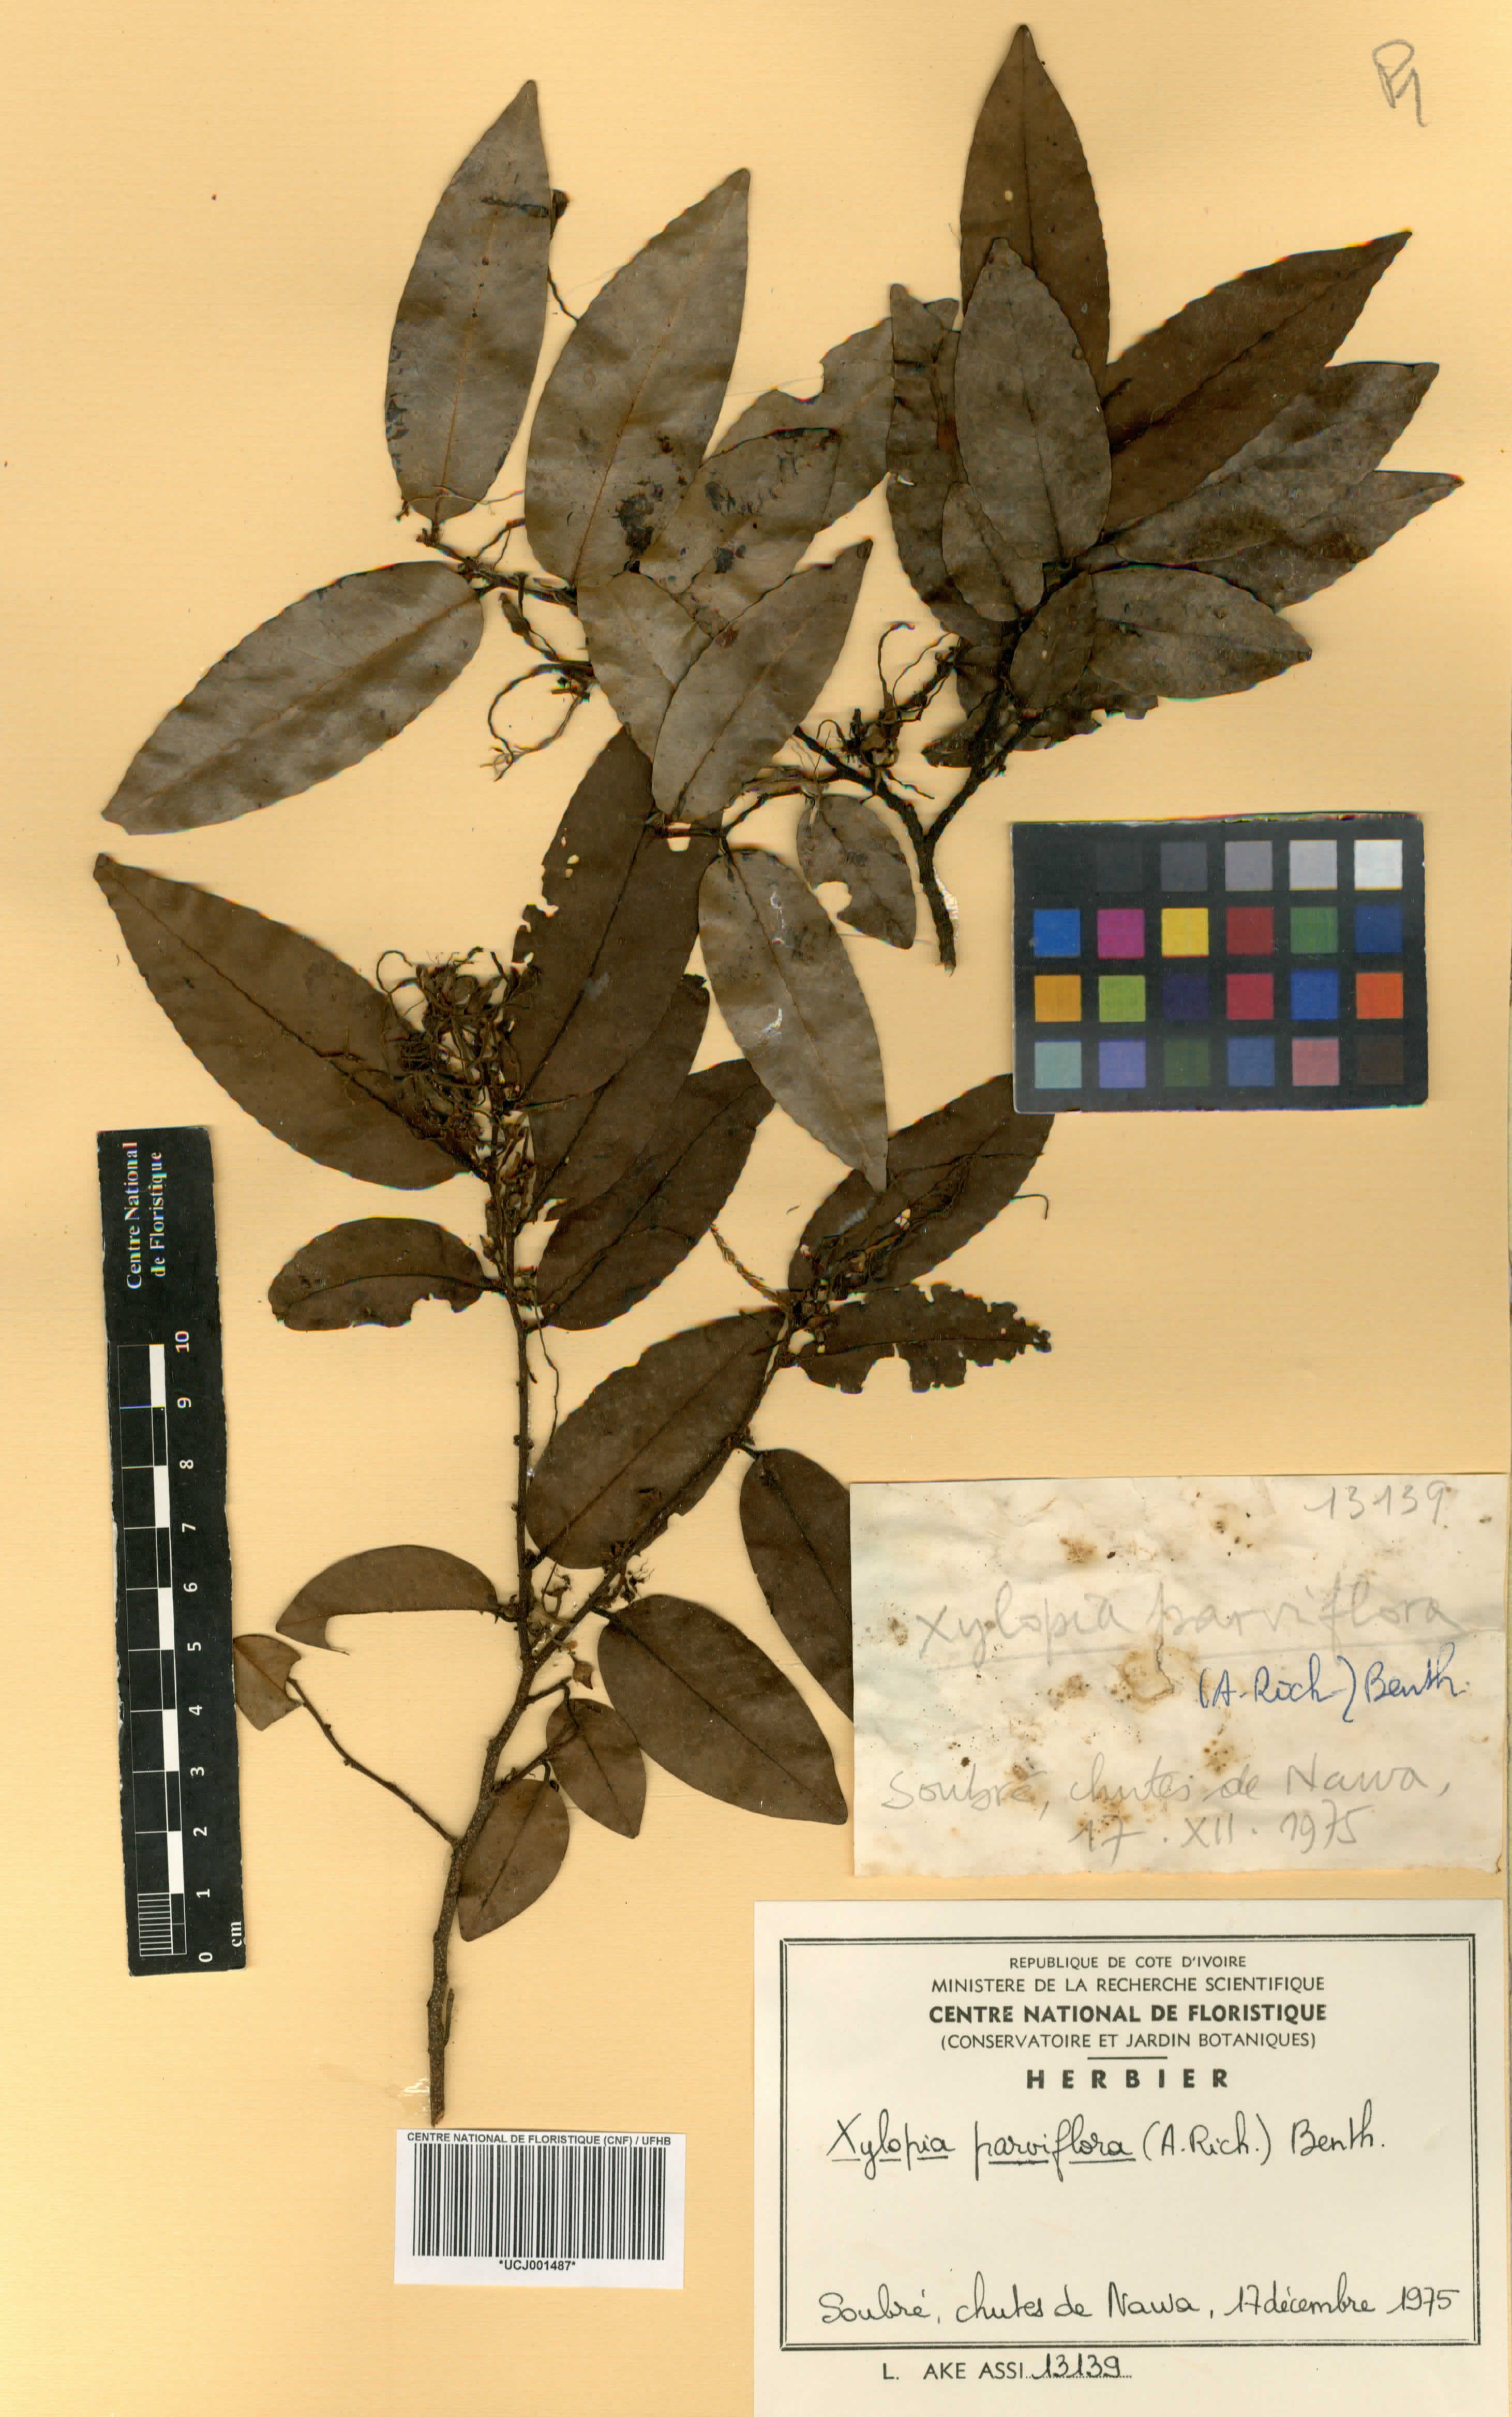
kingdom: Plantae
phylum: Tracheophyta
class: Magnoliopsida
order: Magnoliales
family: Annonaceae
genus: Xylopia
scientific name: Xylopia parviflora
